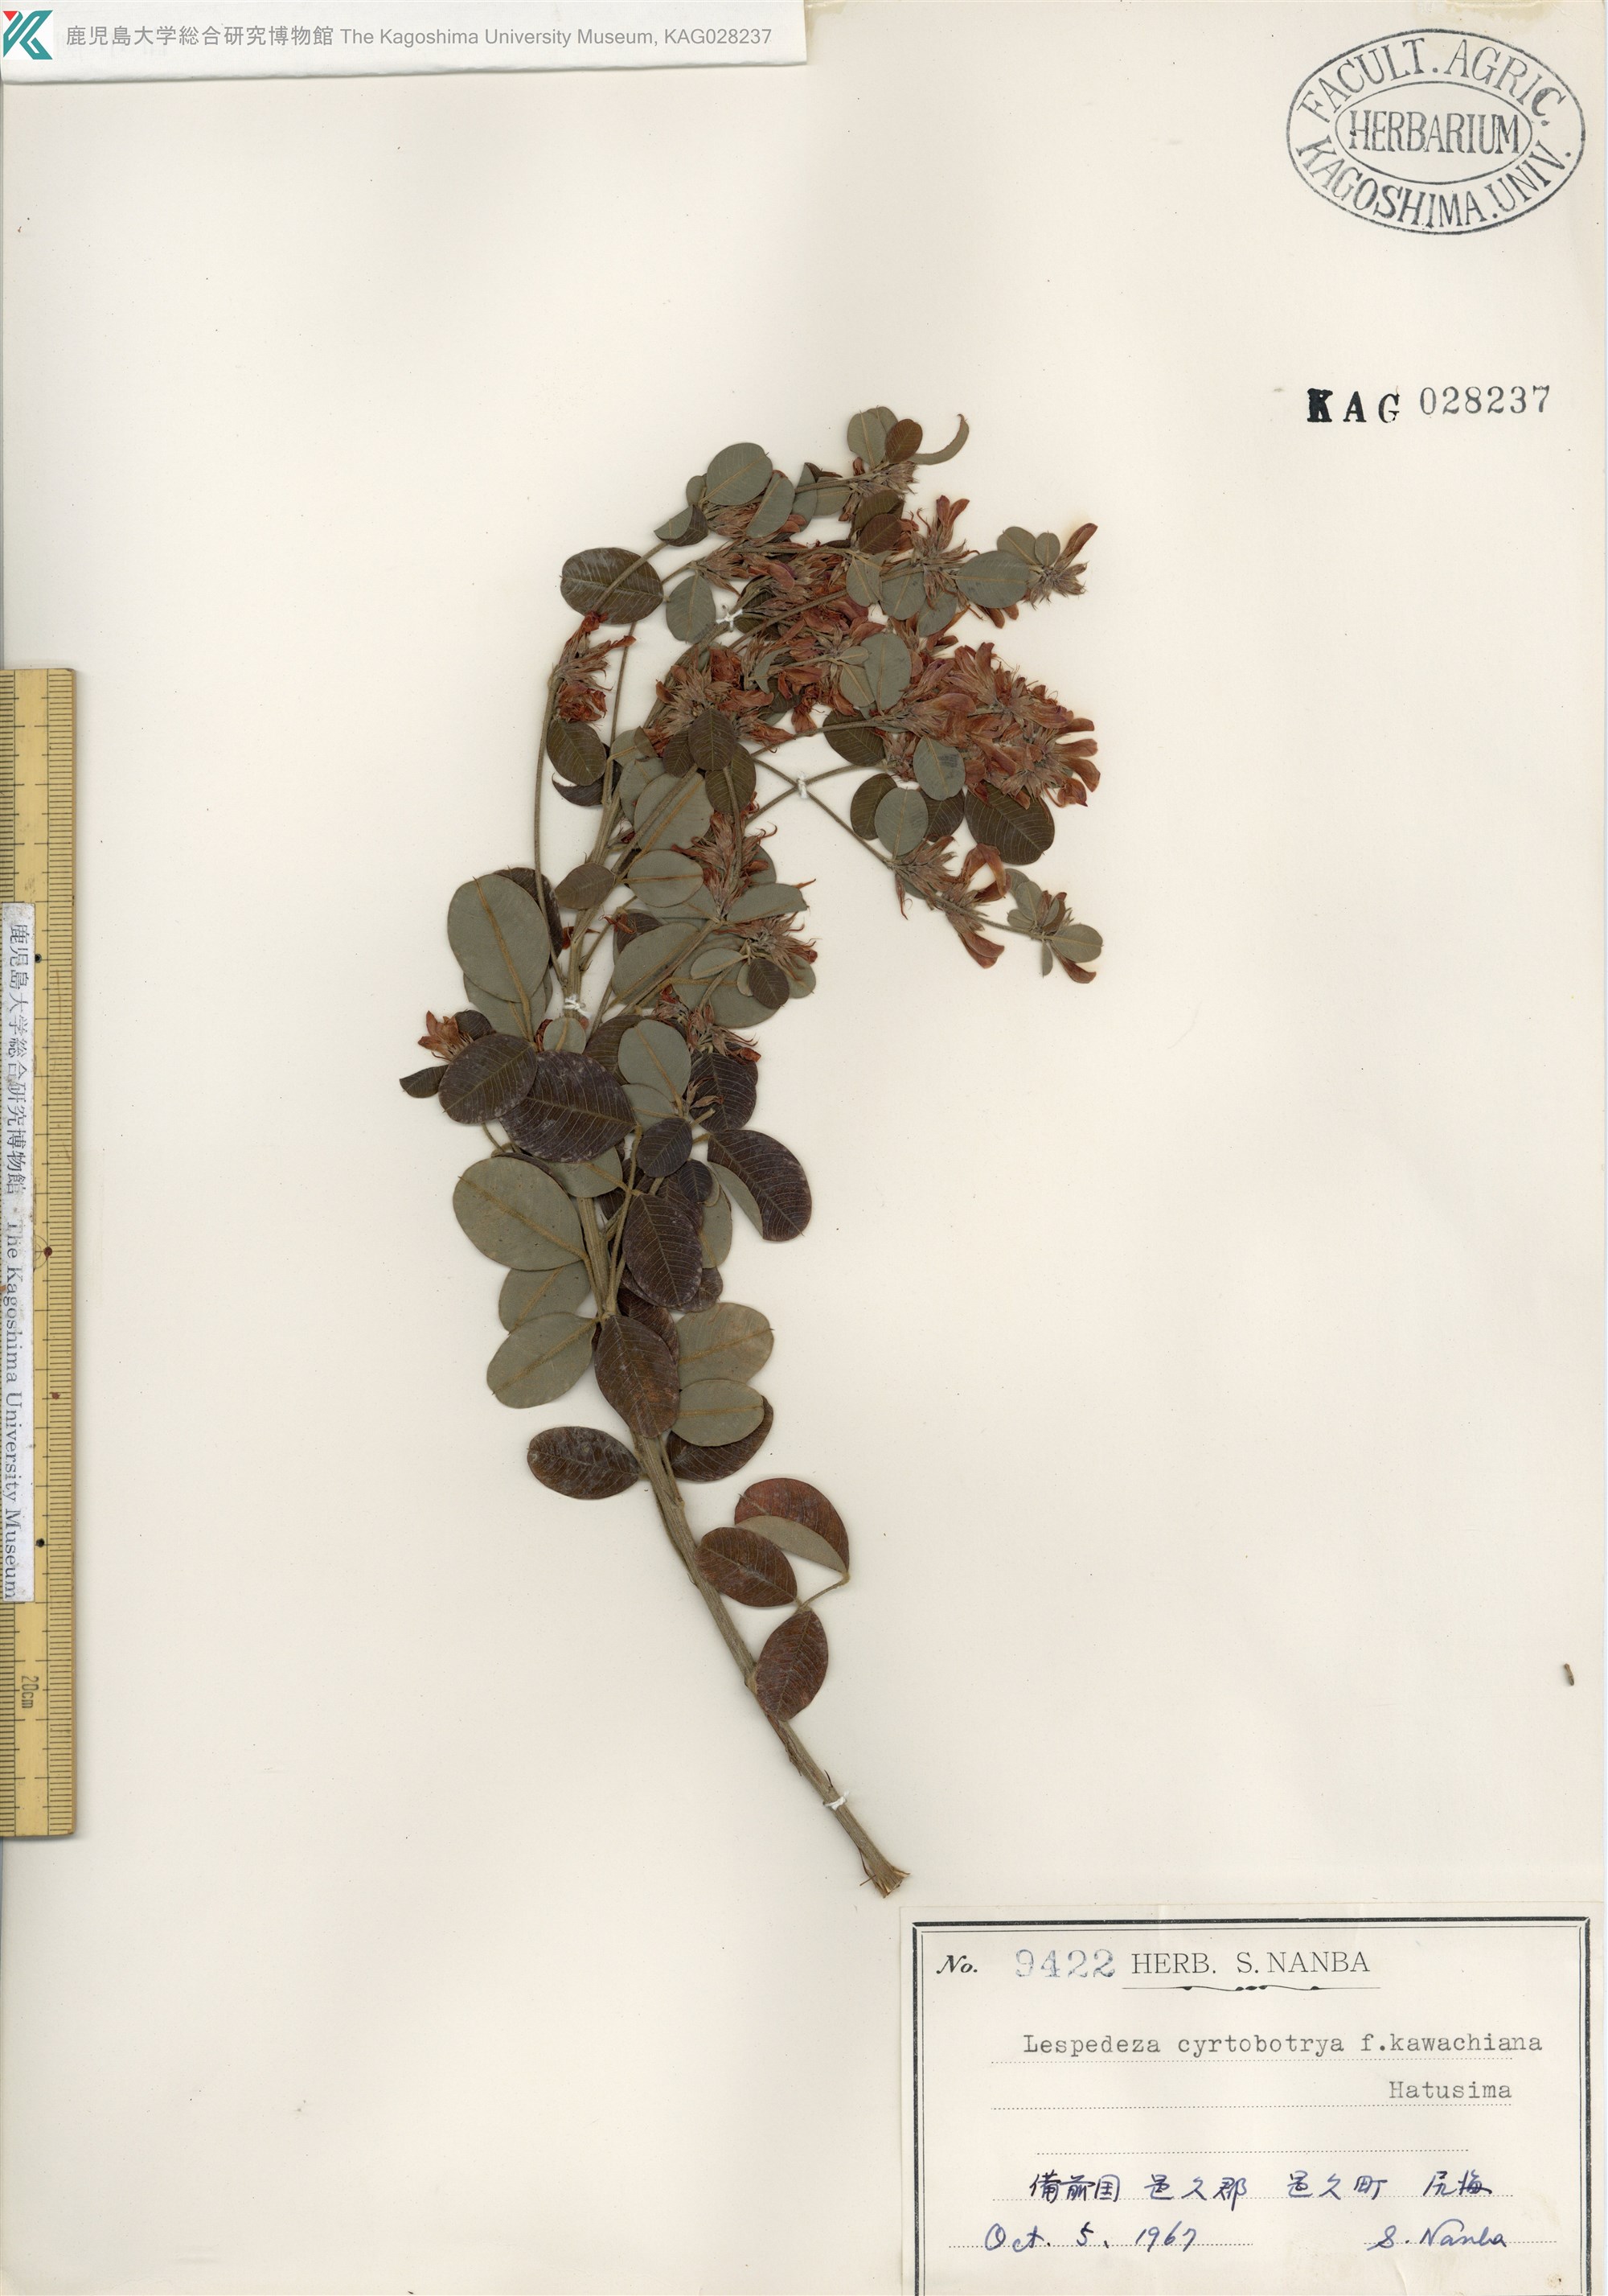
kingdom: Plantae
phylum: Tracheophyta
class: Magnoliopsida
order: Fabales
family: Fabaceae
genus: Lespedeza
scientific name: Lespedeza cyrtobotrya
